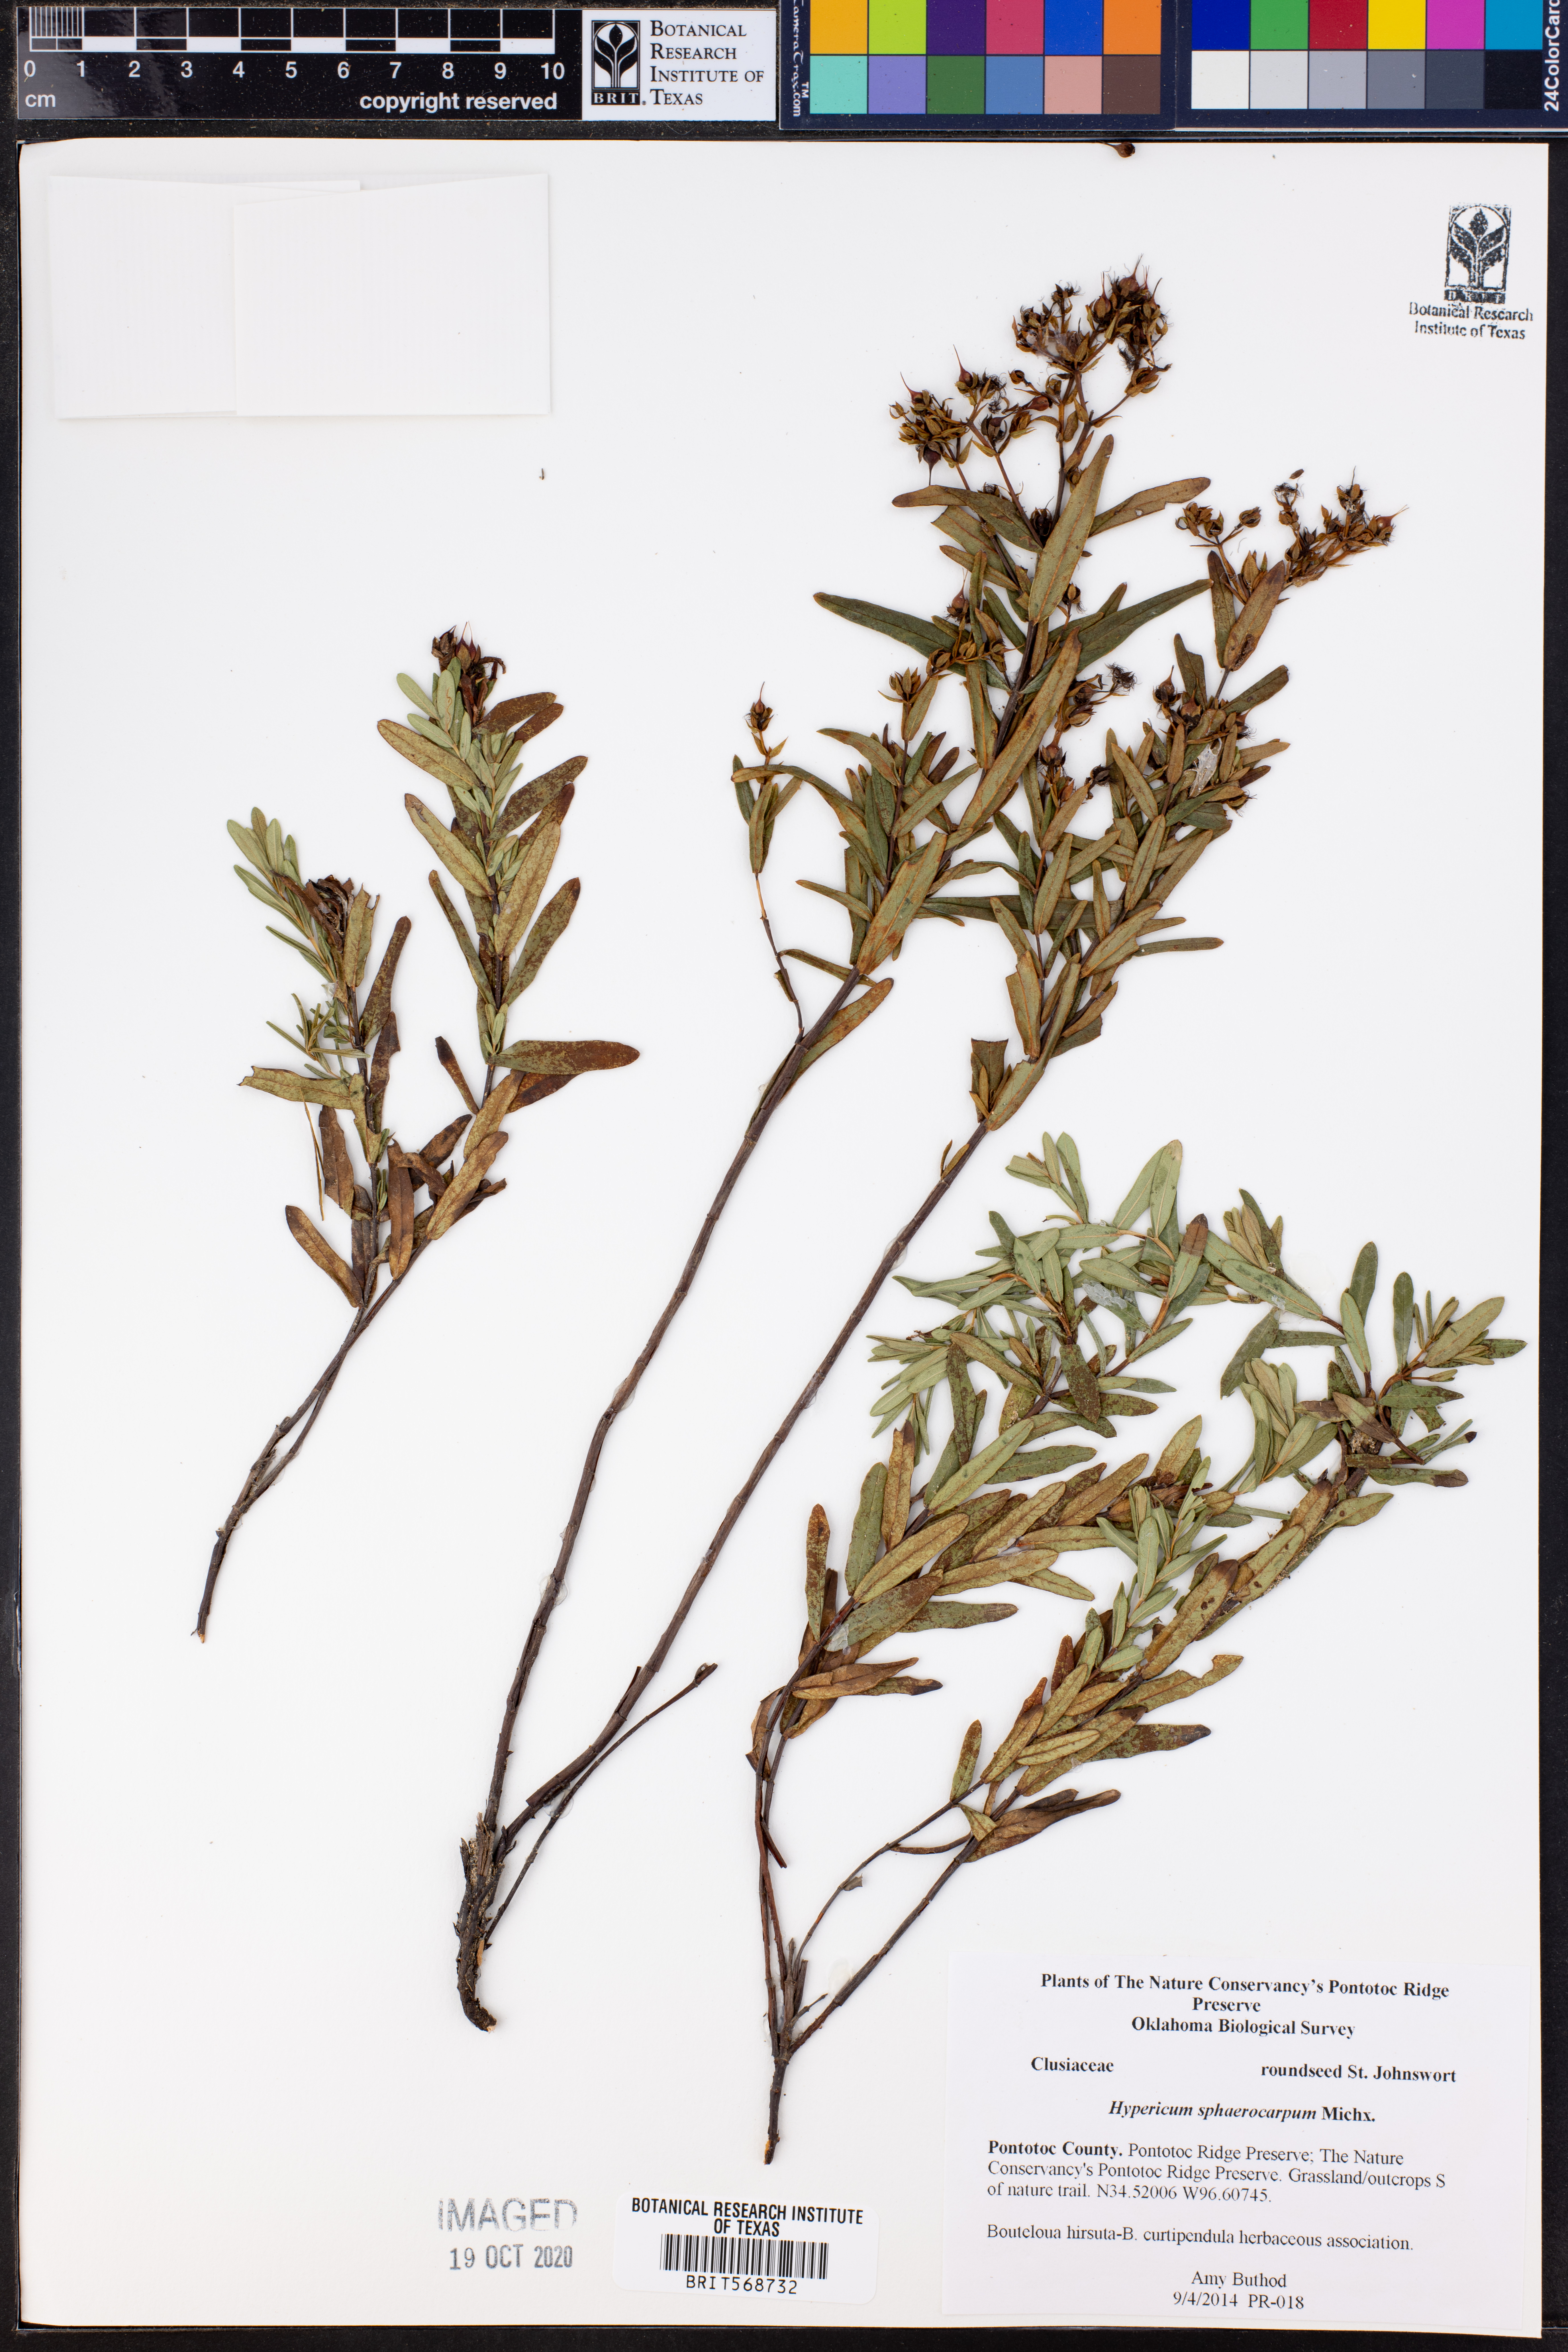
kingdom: Plantae
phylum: Tracheophyta
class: Magnoliopsida
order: Malpighiales
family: Hypericaceae
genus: Hypericum
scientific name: Hypericum sphaerocarpum
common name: Round-fruited st. john's-wort
